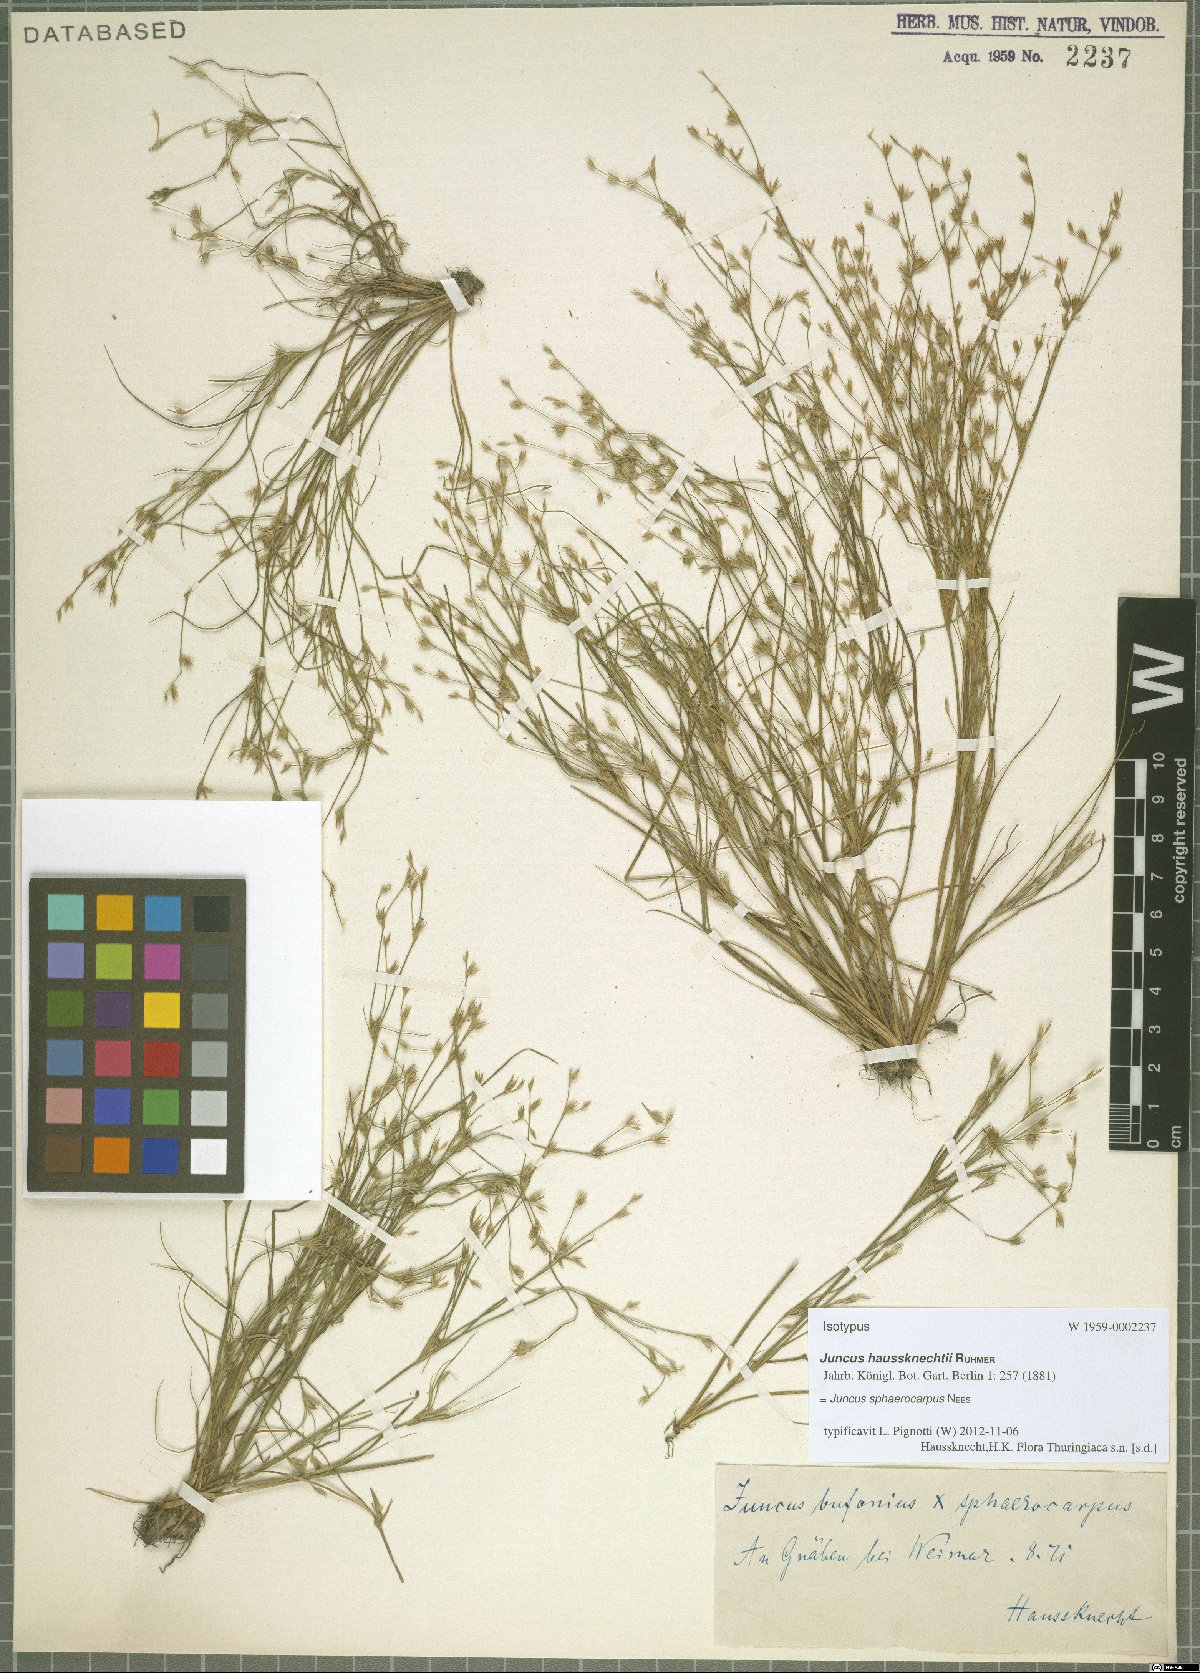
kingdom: Plantae
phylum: Tracheophyta
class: Liliopsida
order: Poales
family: Juncaceae
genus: Juncus
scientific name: Juncus sphaerocarpus
